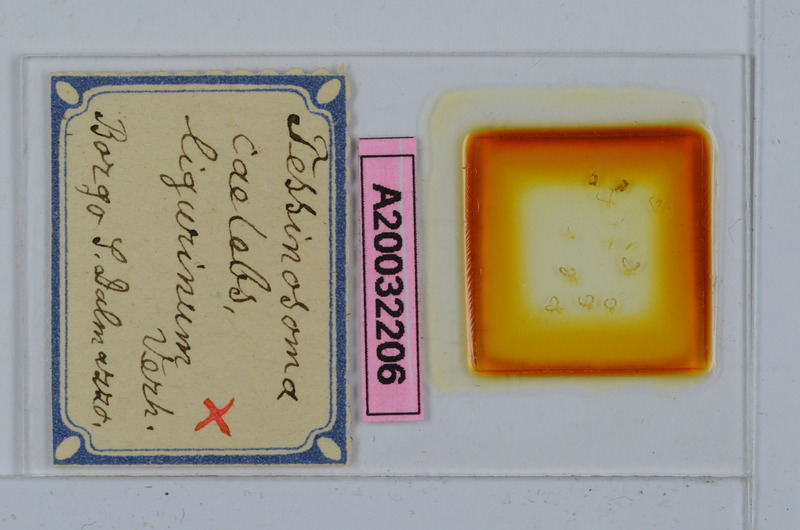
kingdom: Animalia
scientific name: Animalia
